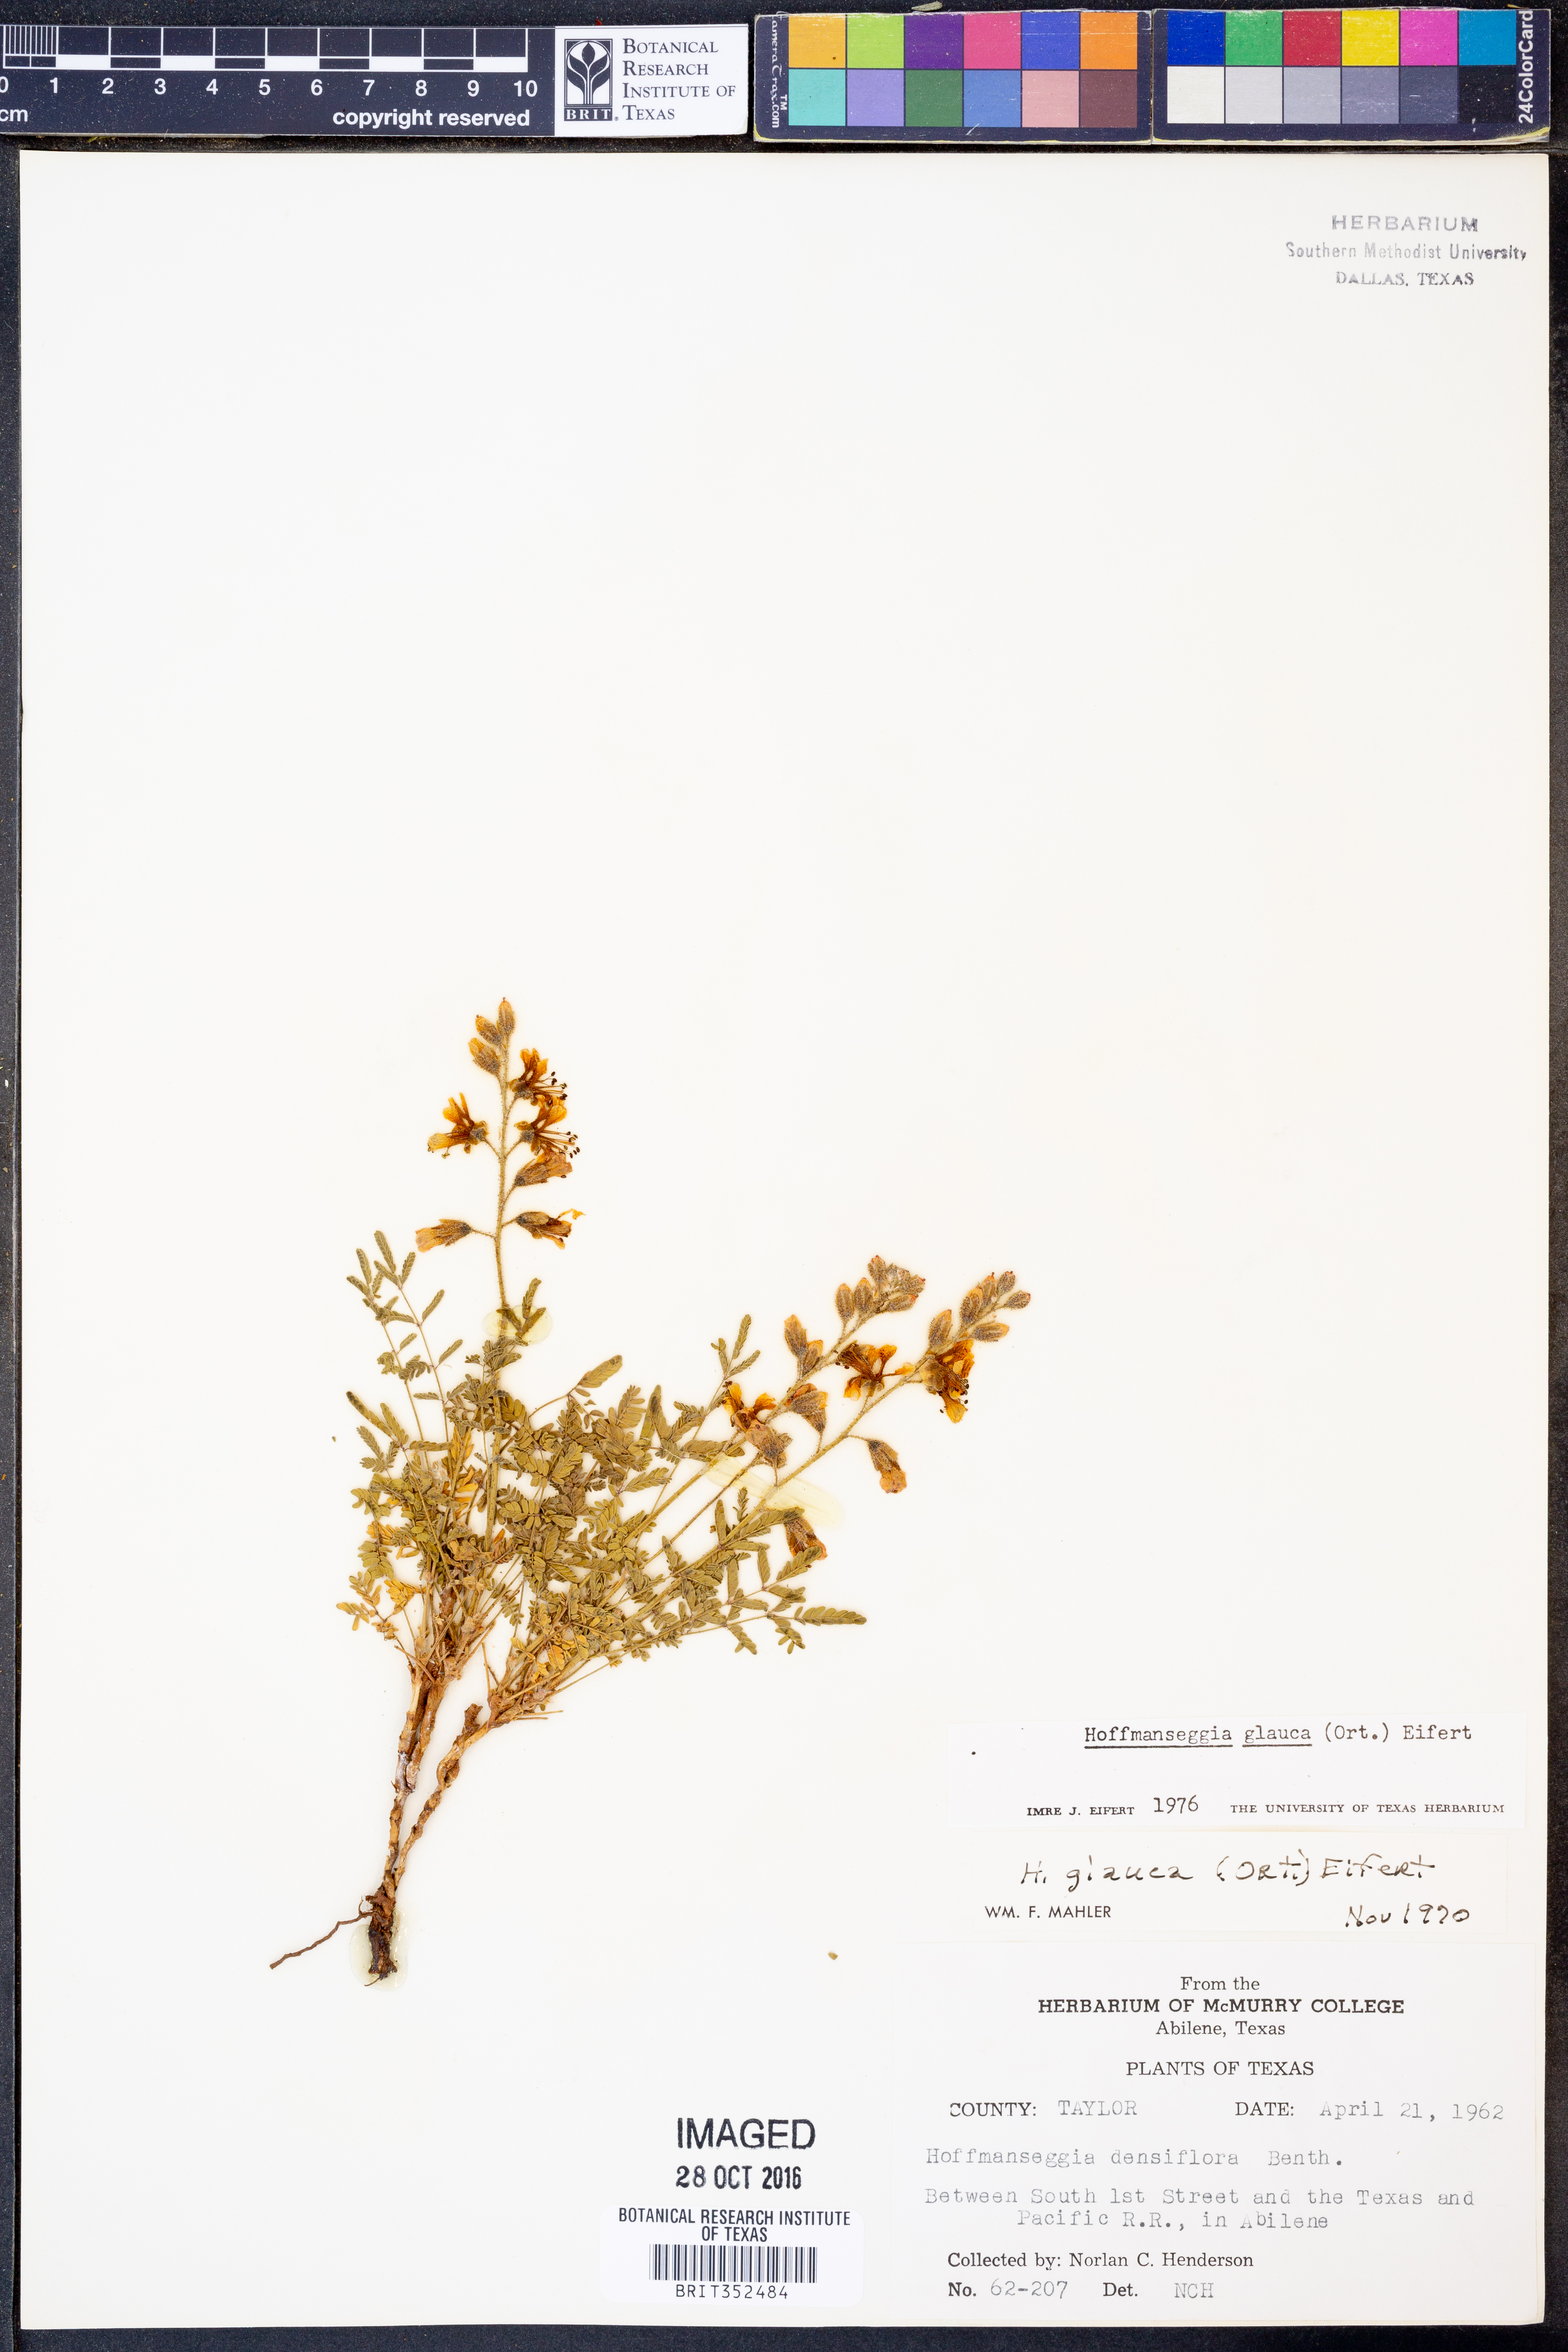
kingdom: Plantae
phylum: Tracheophyta
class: Magnoliopsida
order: Fabales
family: Fabaceae
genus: Hoffmannseggia
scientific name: Hoffmannseggia glauca
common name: Pignut
